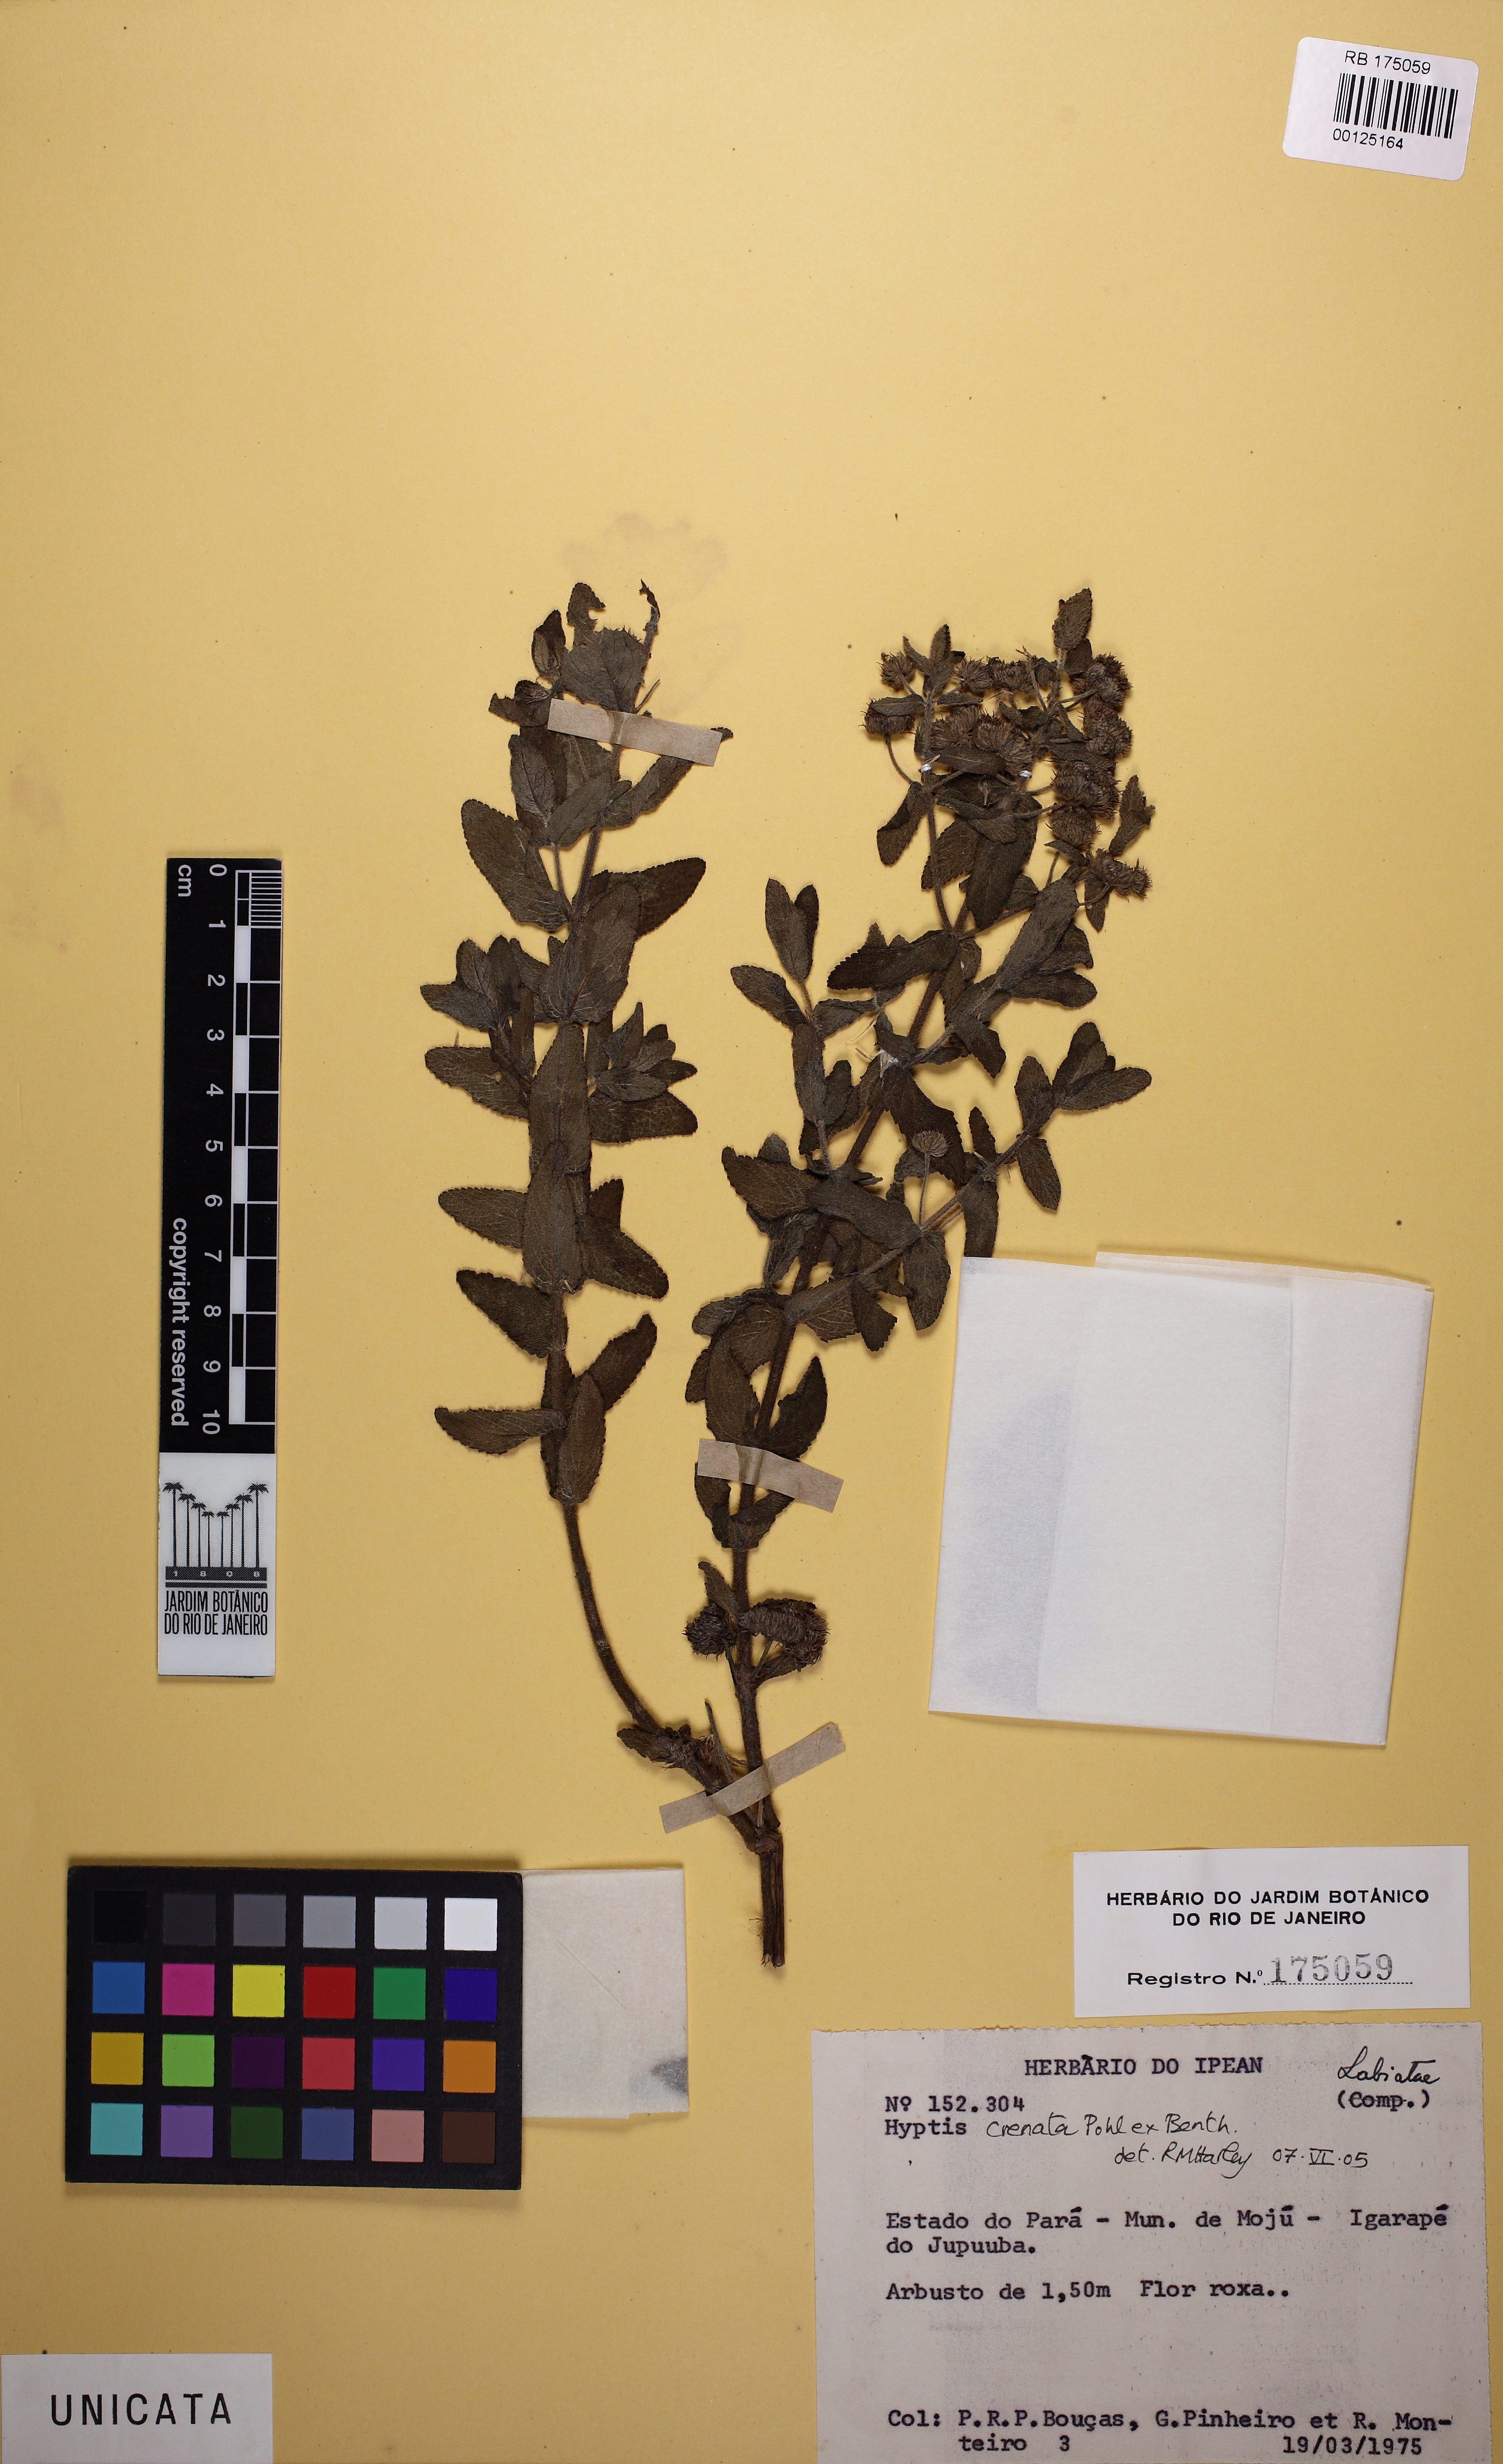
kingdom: Plantae
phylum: Tracheophyta
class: Magnoliopsida
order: Lamiales
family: Lamiaceae
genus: Hyptis
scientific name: Hyptis crenata
